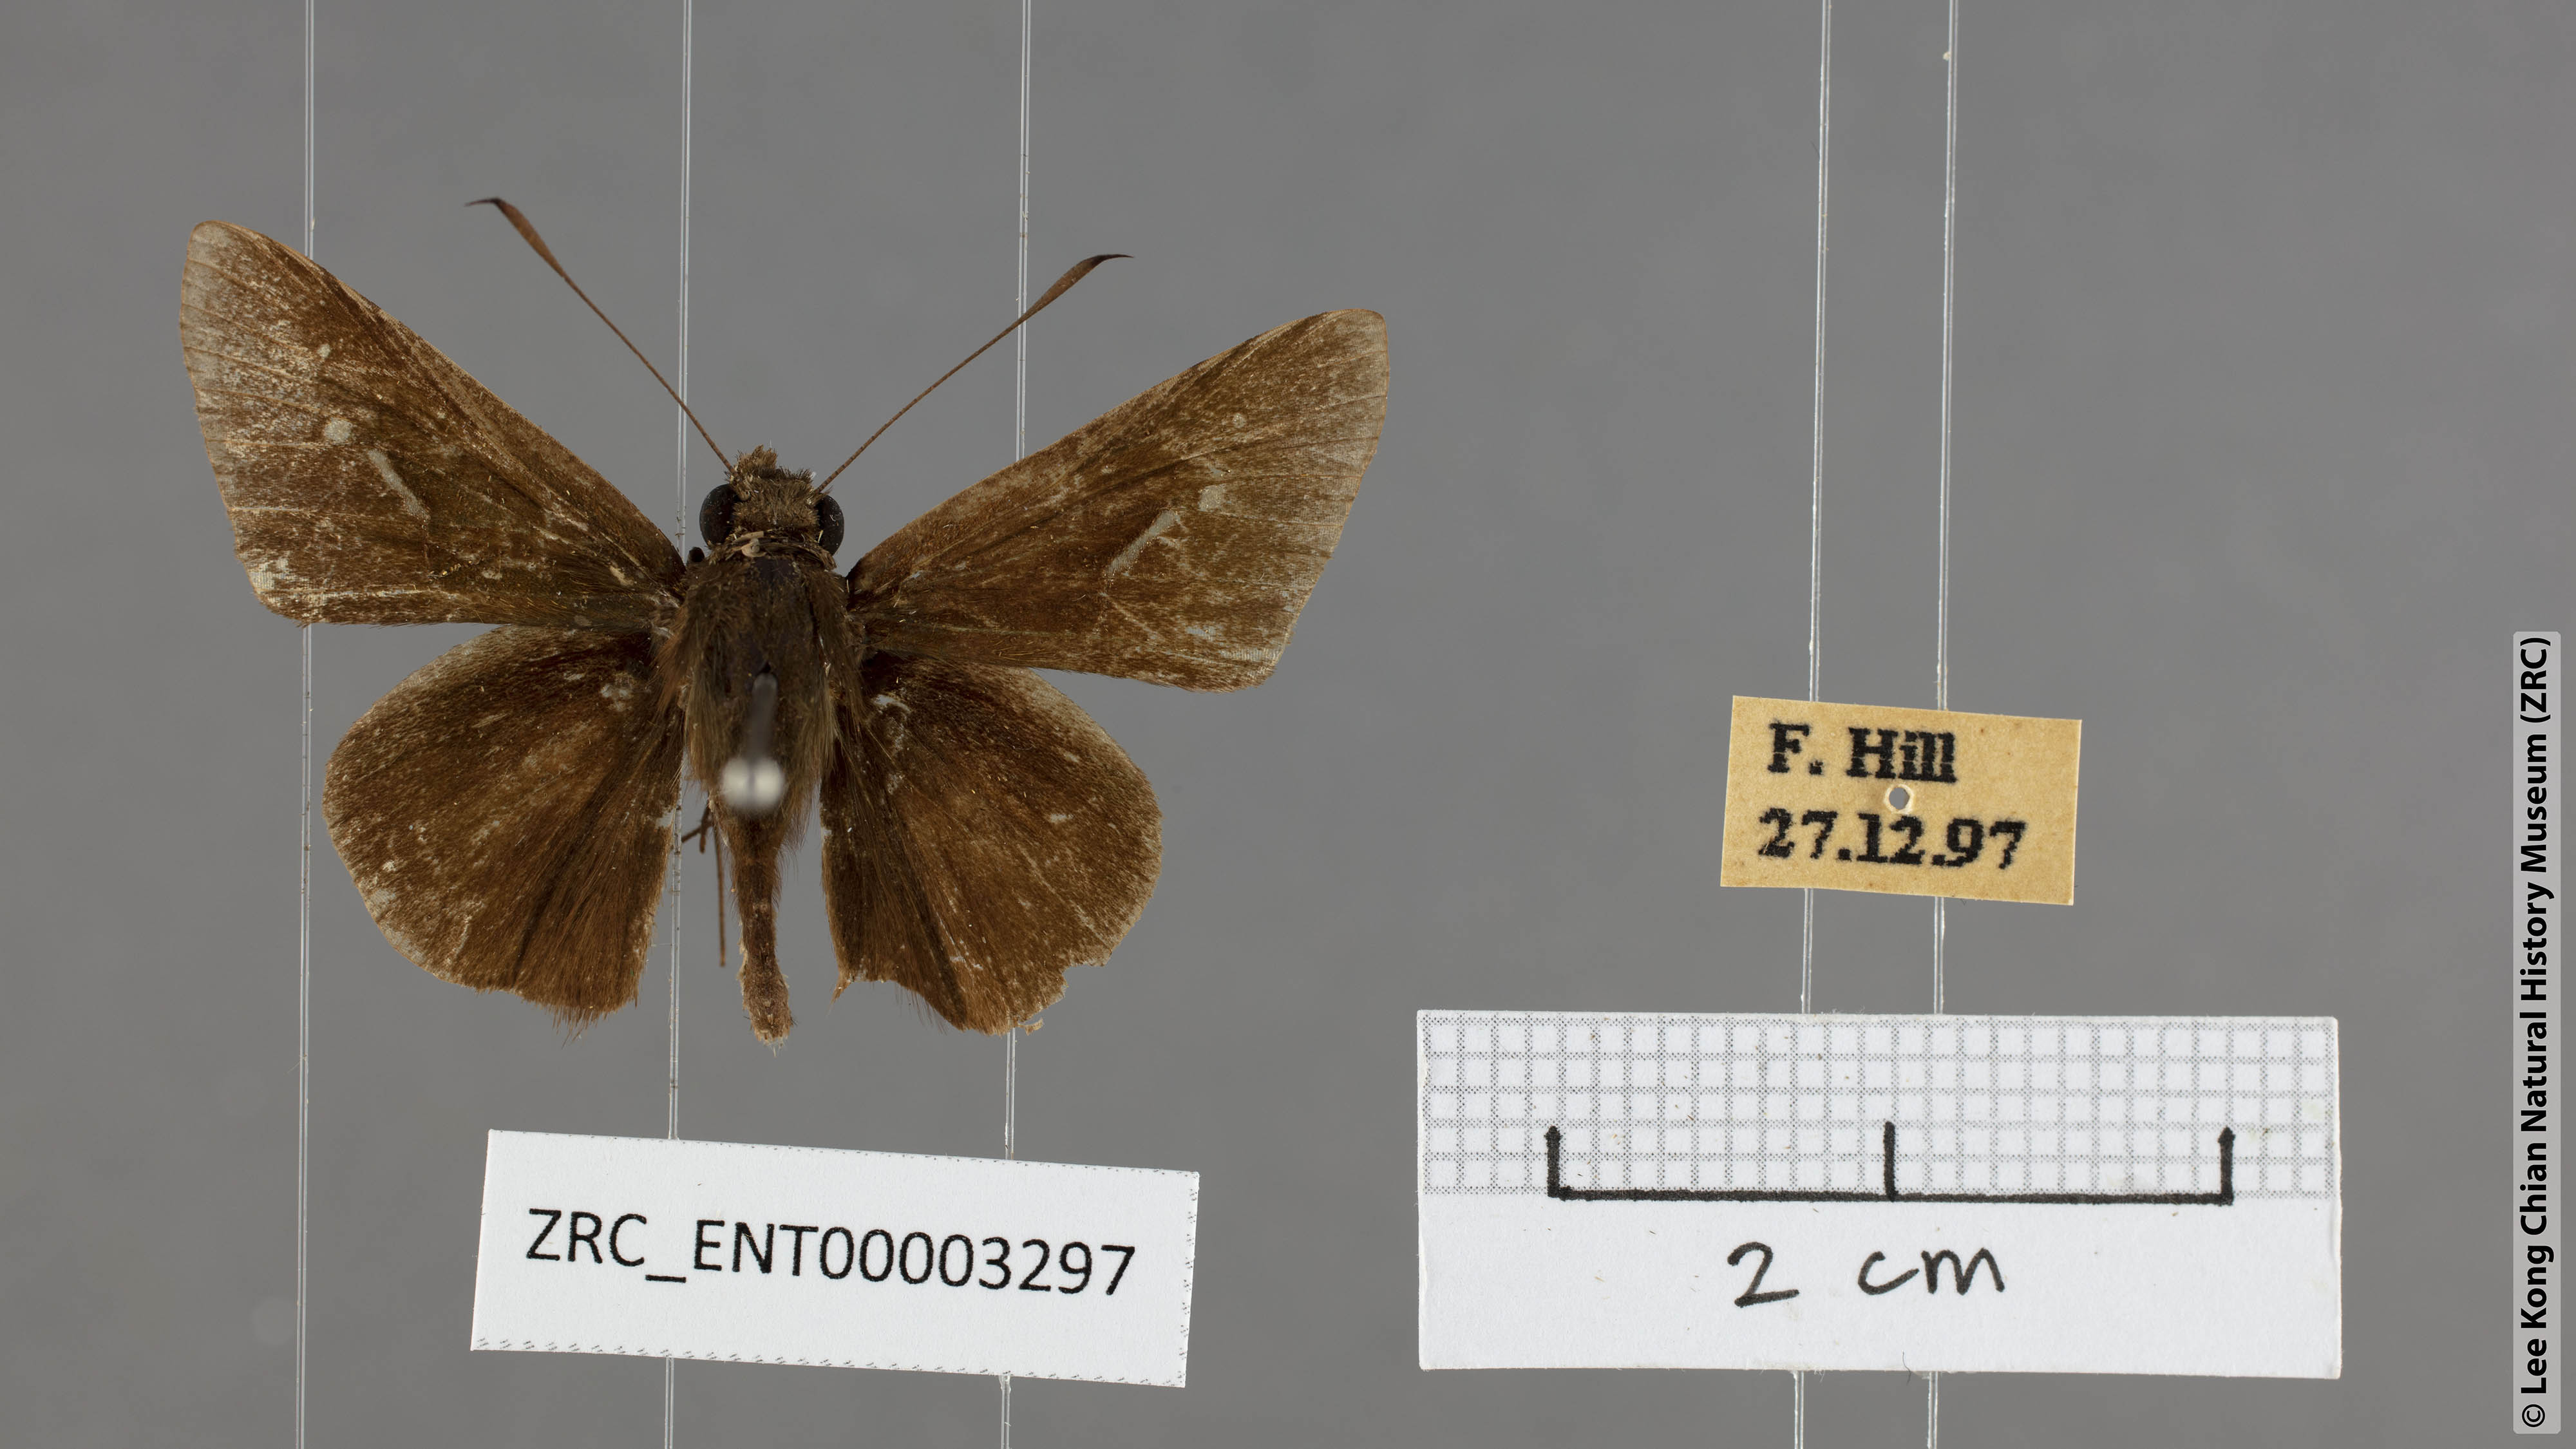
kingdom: Animalia
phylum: Arthropoda
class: Insecta
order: Lepidoptera
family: Hesperiidae
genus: Isma
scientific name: Isma cronus
